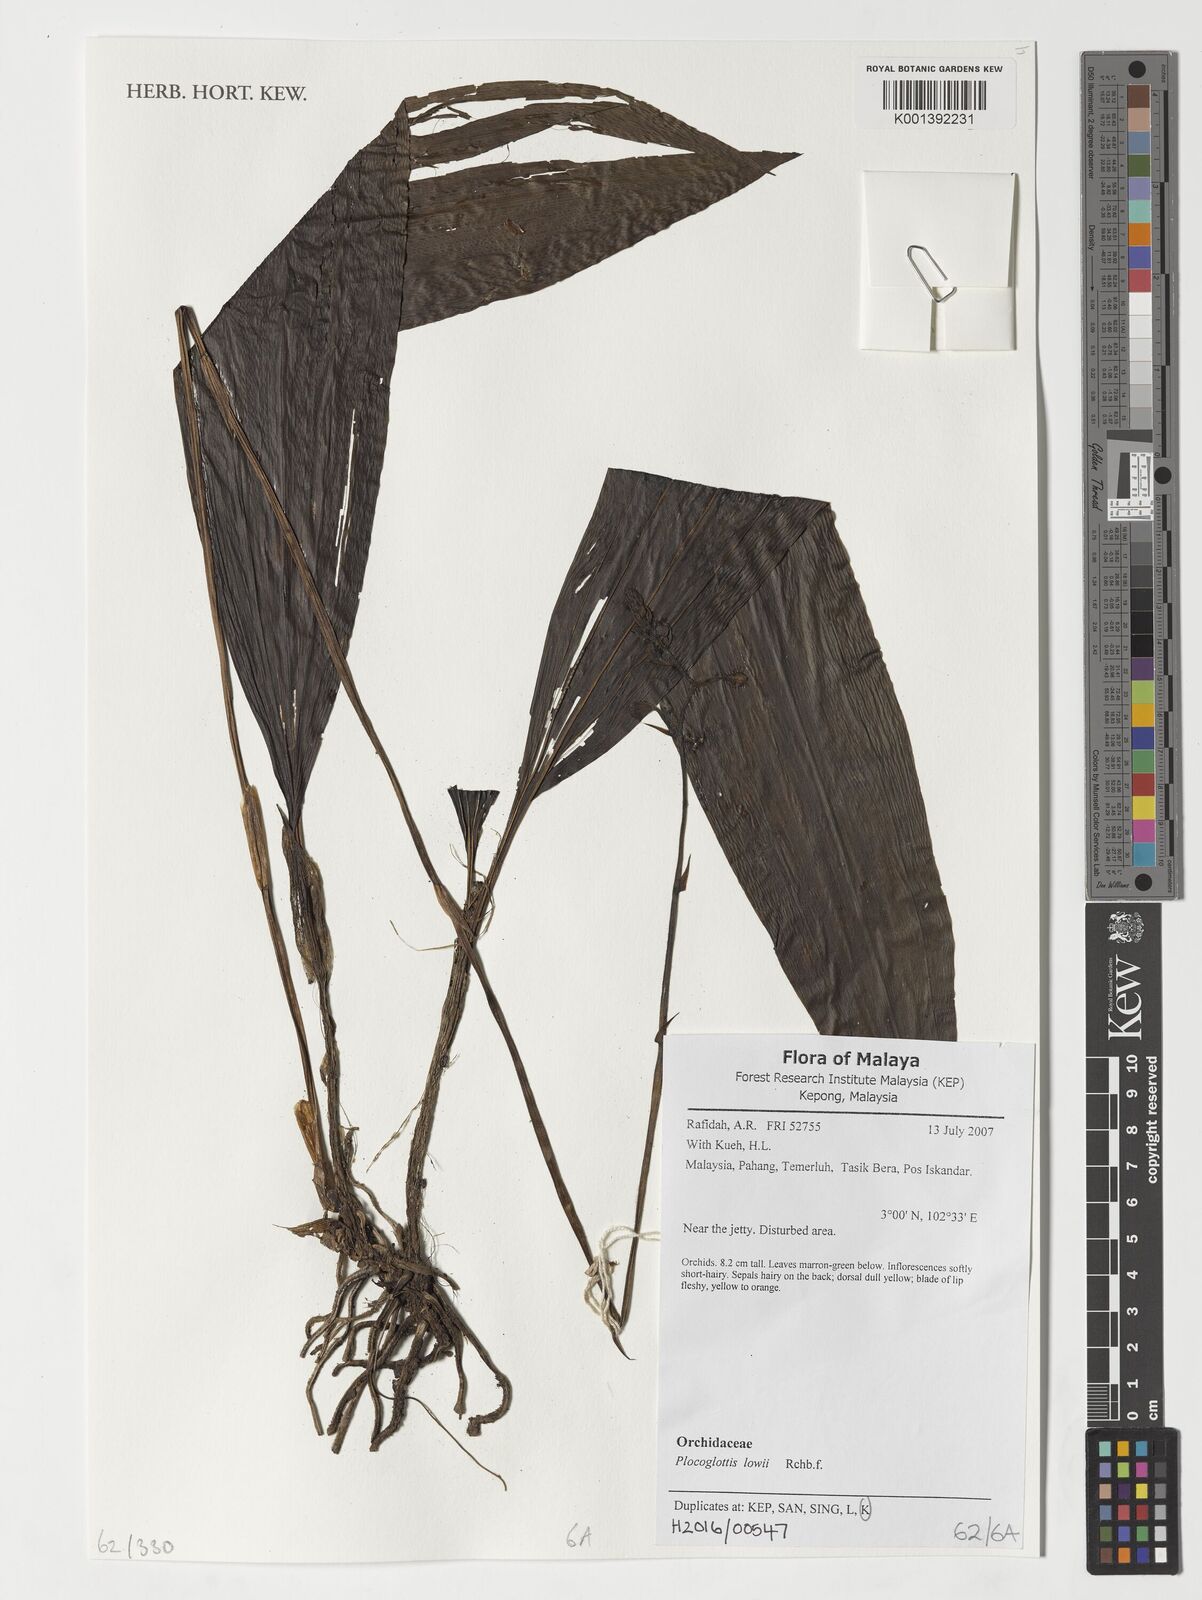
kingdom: Plantae
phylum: Tracheophyta
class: Liliopsida
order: Asparagales
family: Orchidaceae
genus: Plocoglottis
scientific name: Plocoglottis lowii
